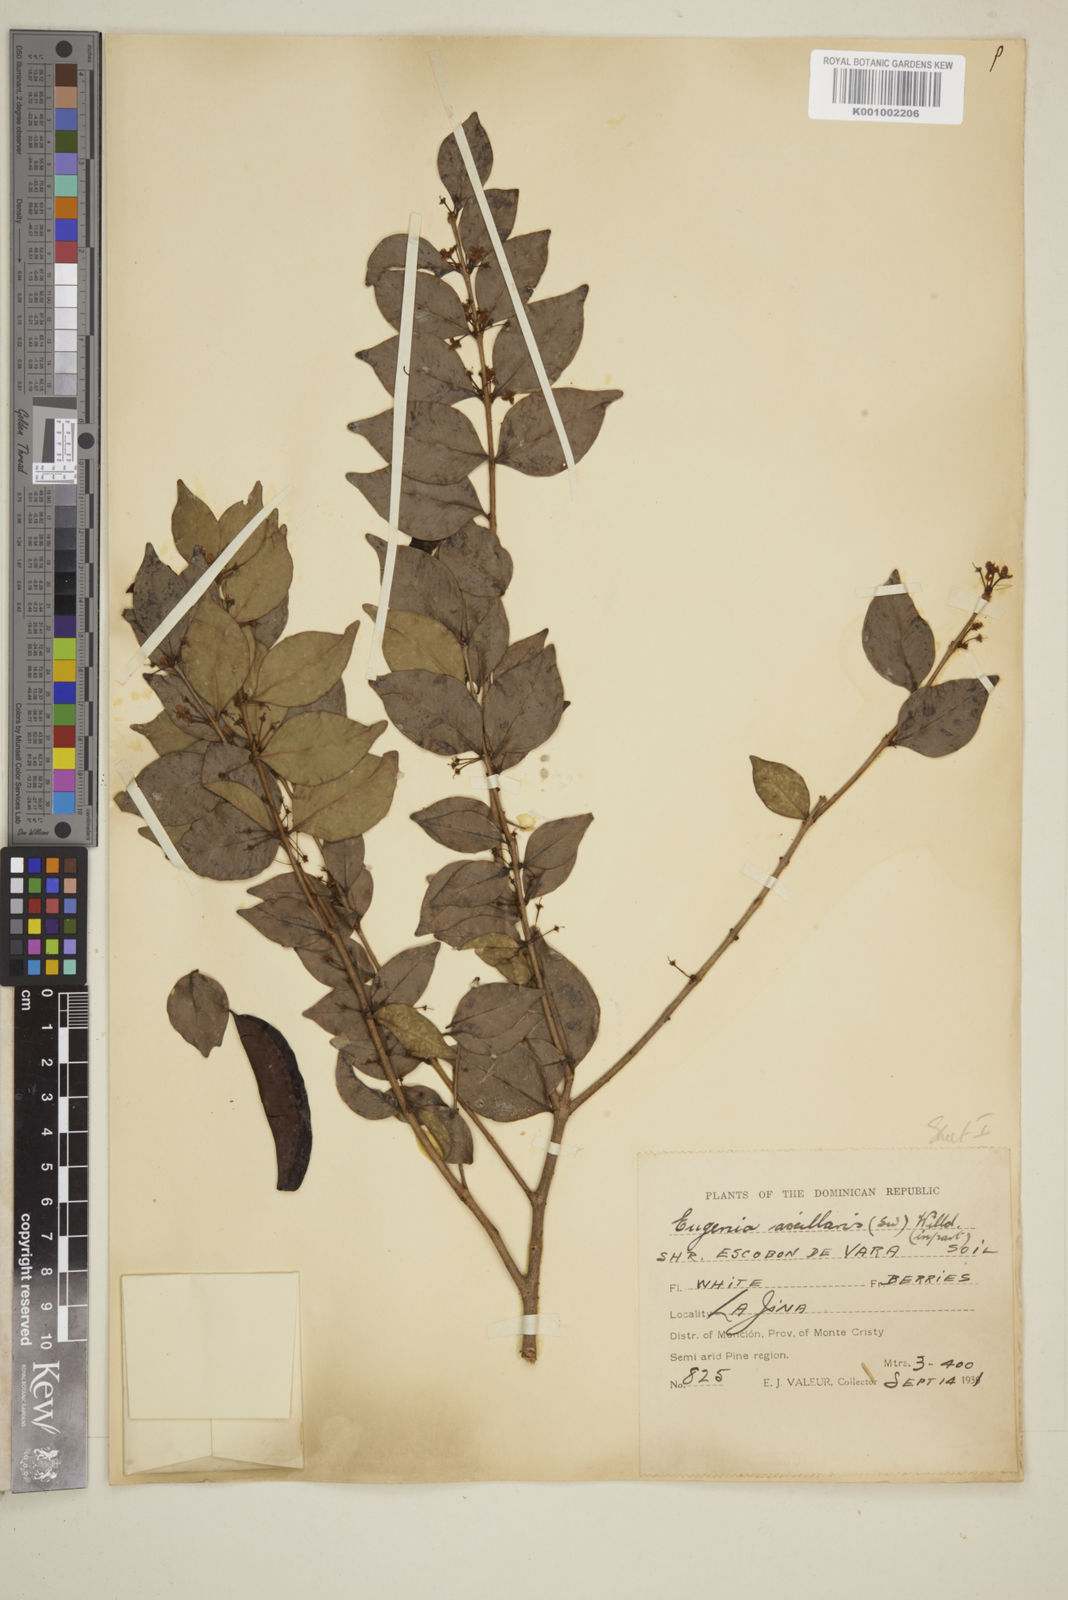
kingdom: Plantae
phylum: Tracheophyta
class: Magnoliopsida
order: Myrtales
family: Myrtaceae
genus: Eugenia
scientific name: Eugenia axillaris
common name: Choaky berry
